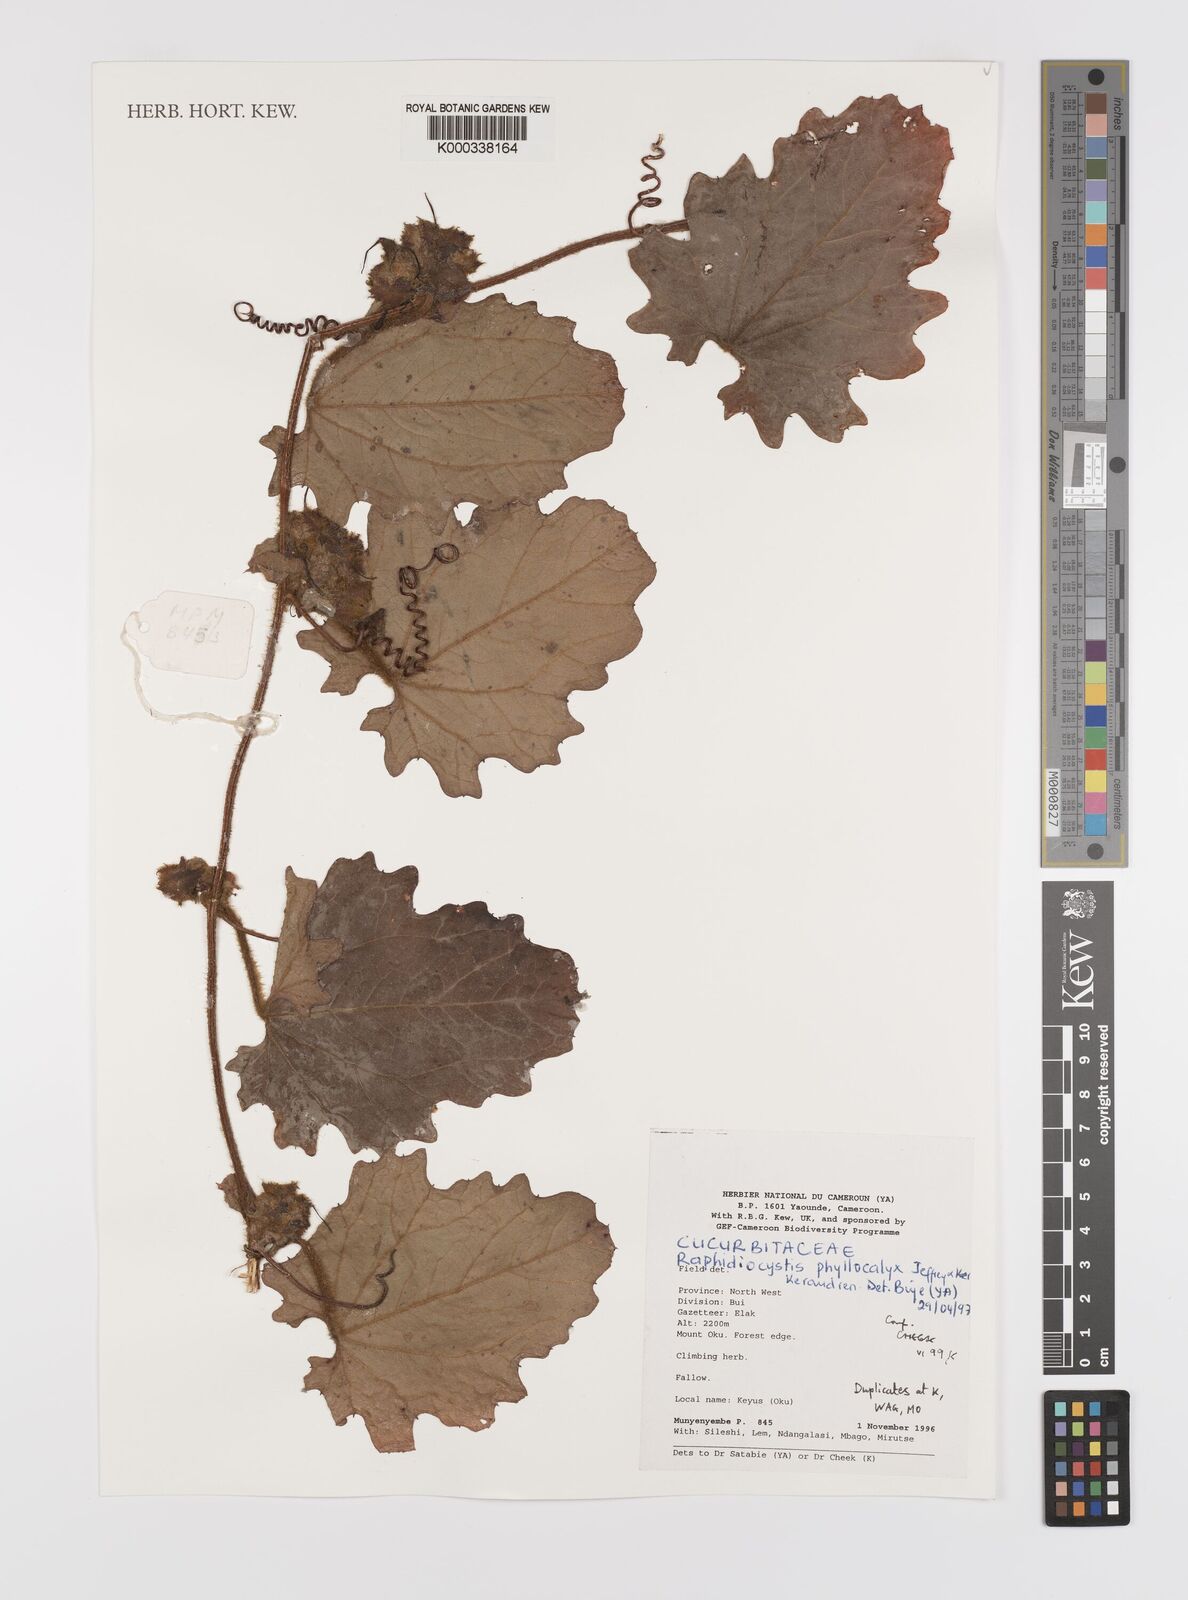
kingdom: Plantae
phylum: Tracheophyta
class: Magnoliopsida
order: Cucurbitales
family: Cucurbitaceae
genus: Raphidiocystis
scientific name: Raphidiocystis phyllocalyx
